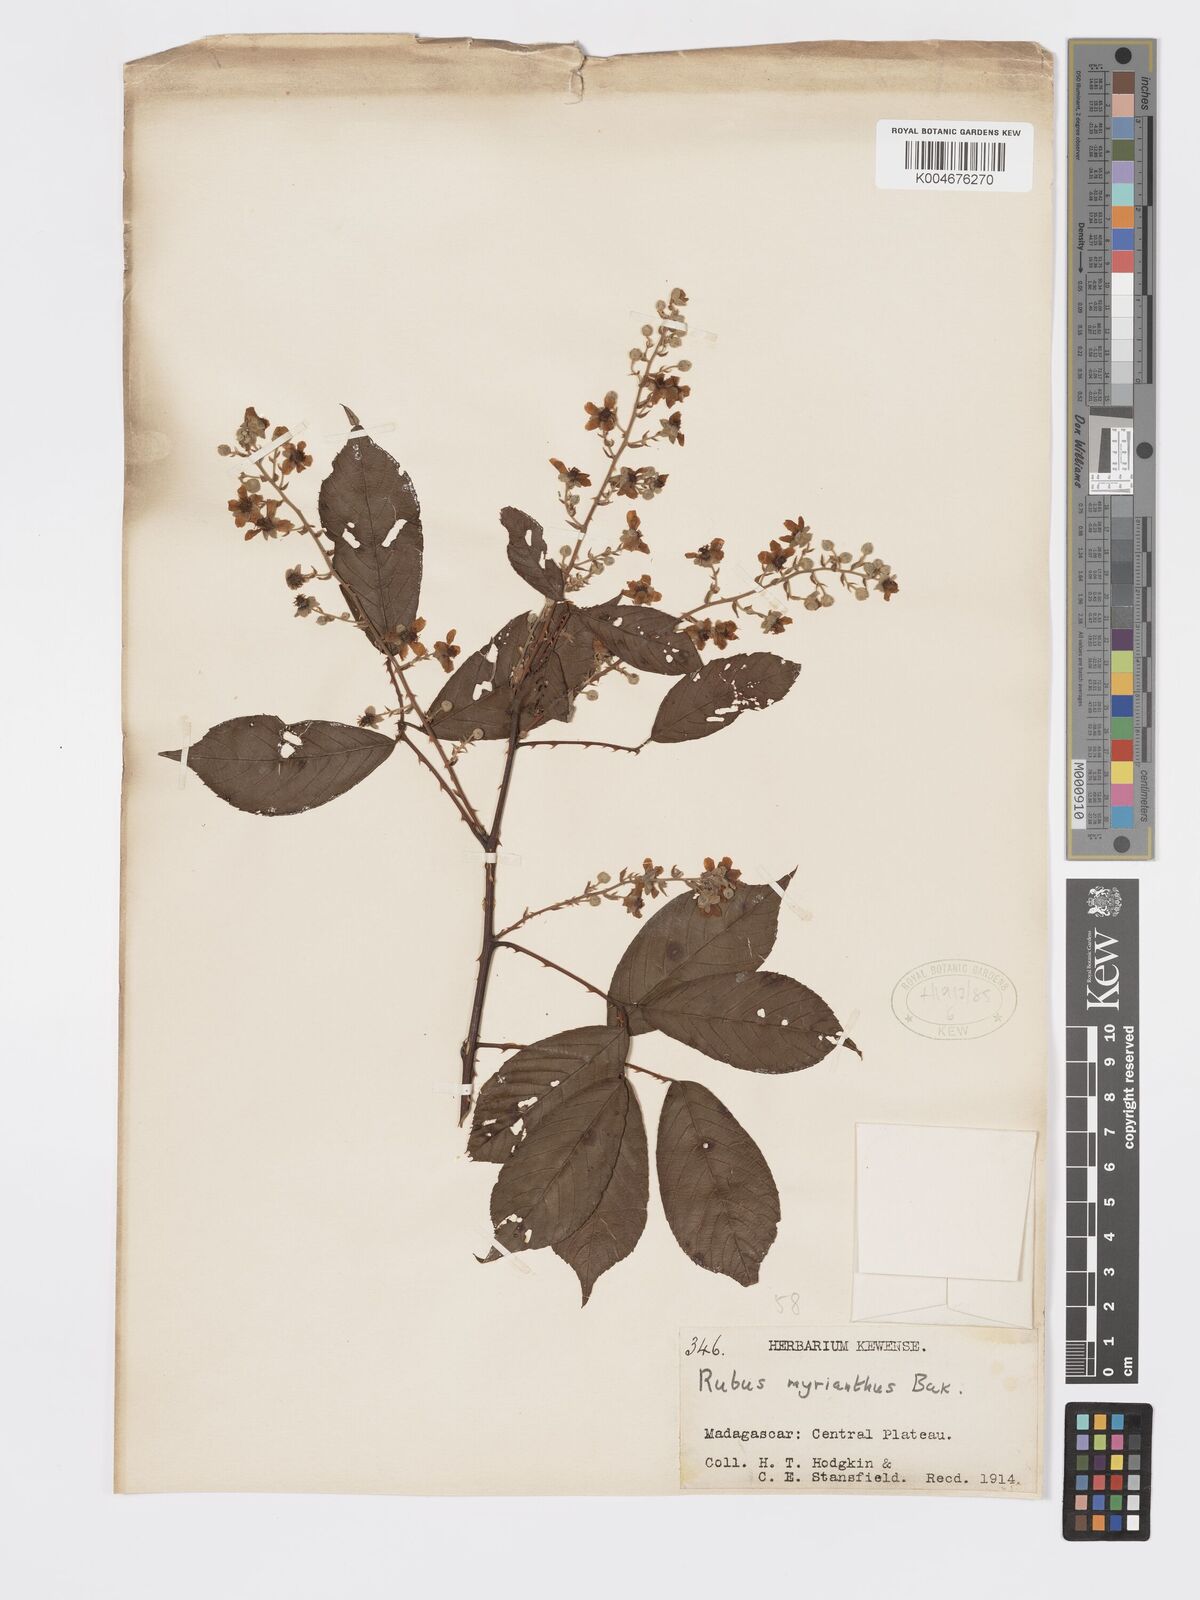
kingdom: Plantae
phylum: Tracheophyta
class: Magnoliopsida
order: Rosales
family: Rosaceae
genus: Rubus
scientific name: Rubus
